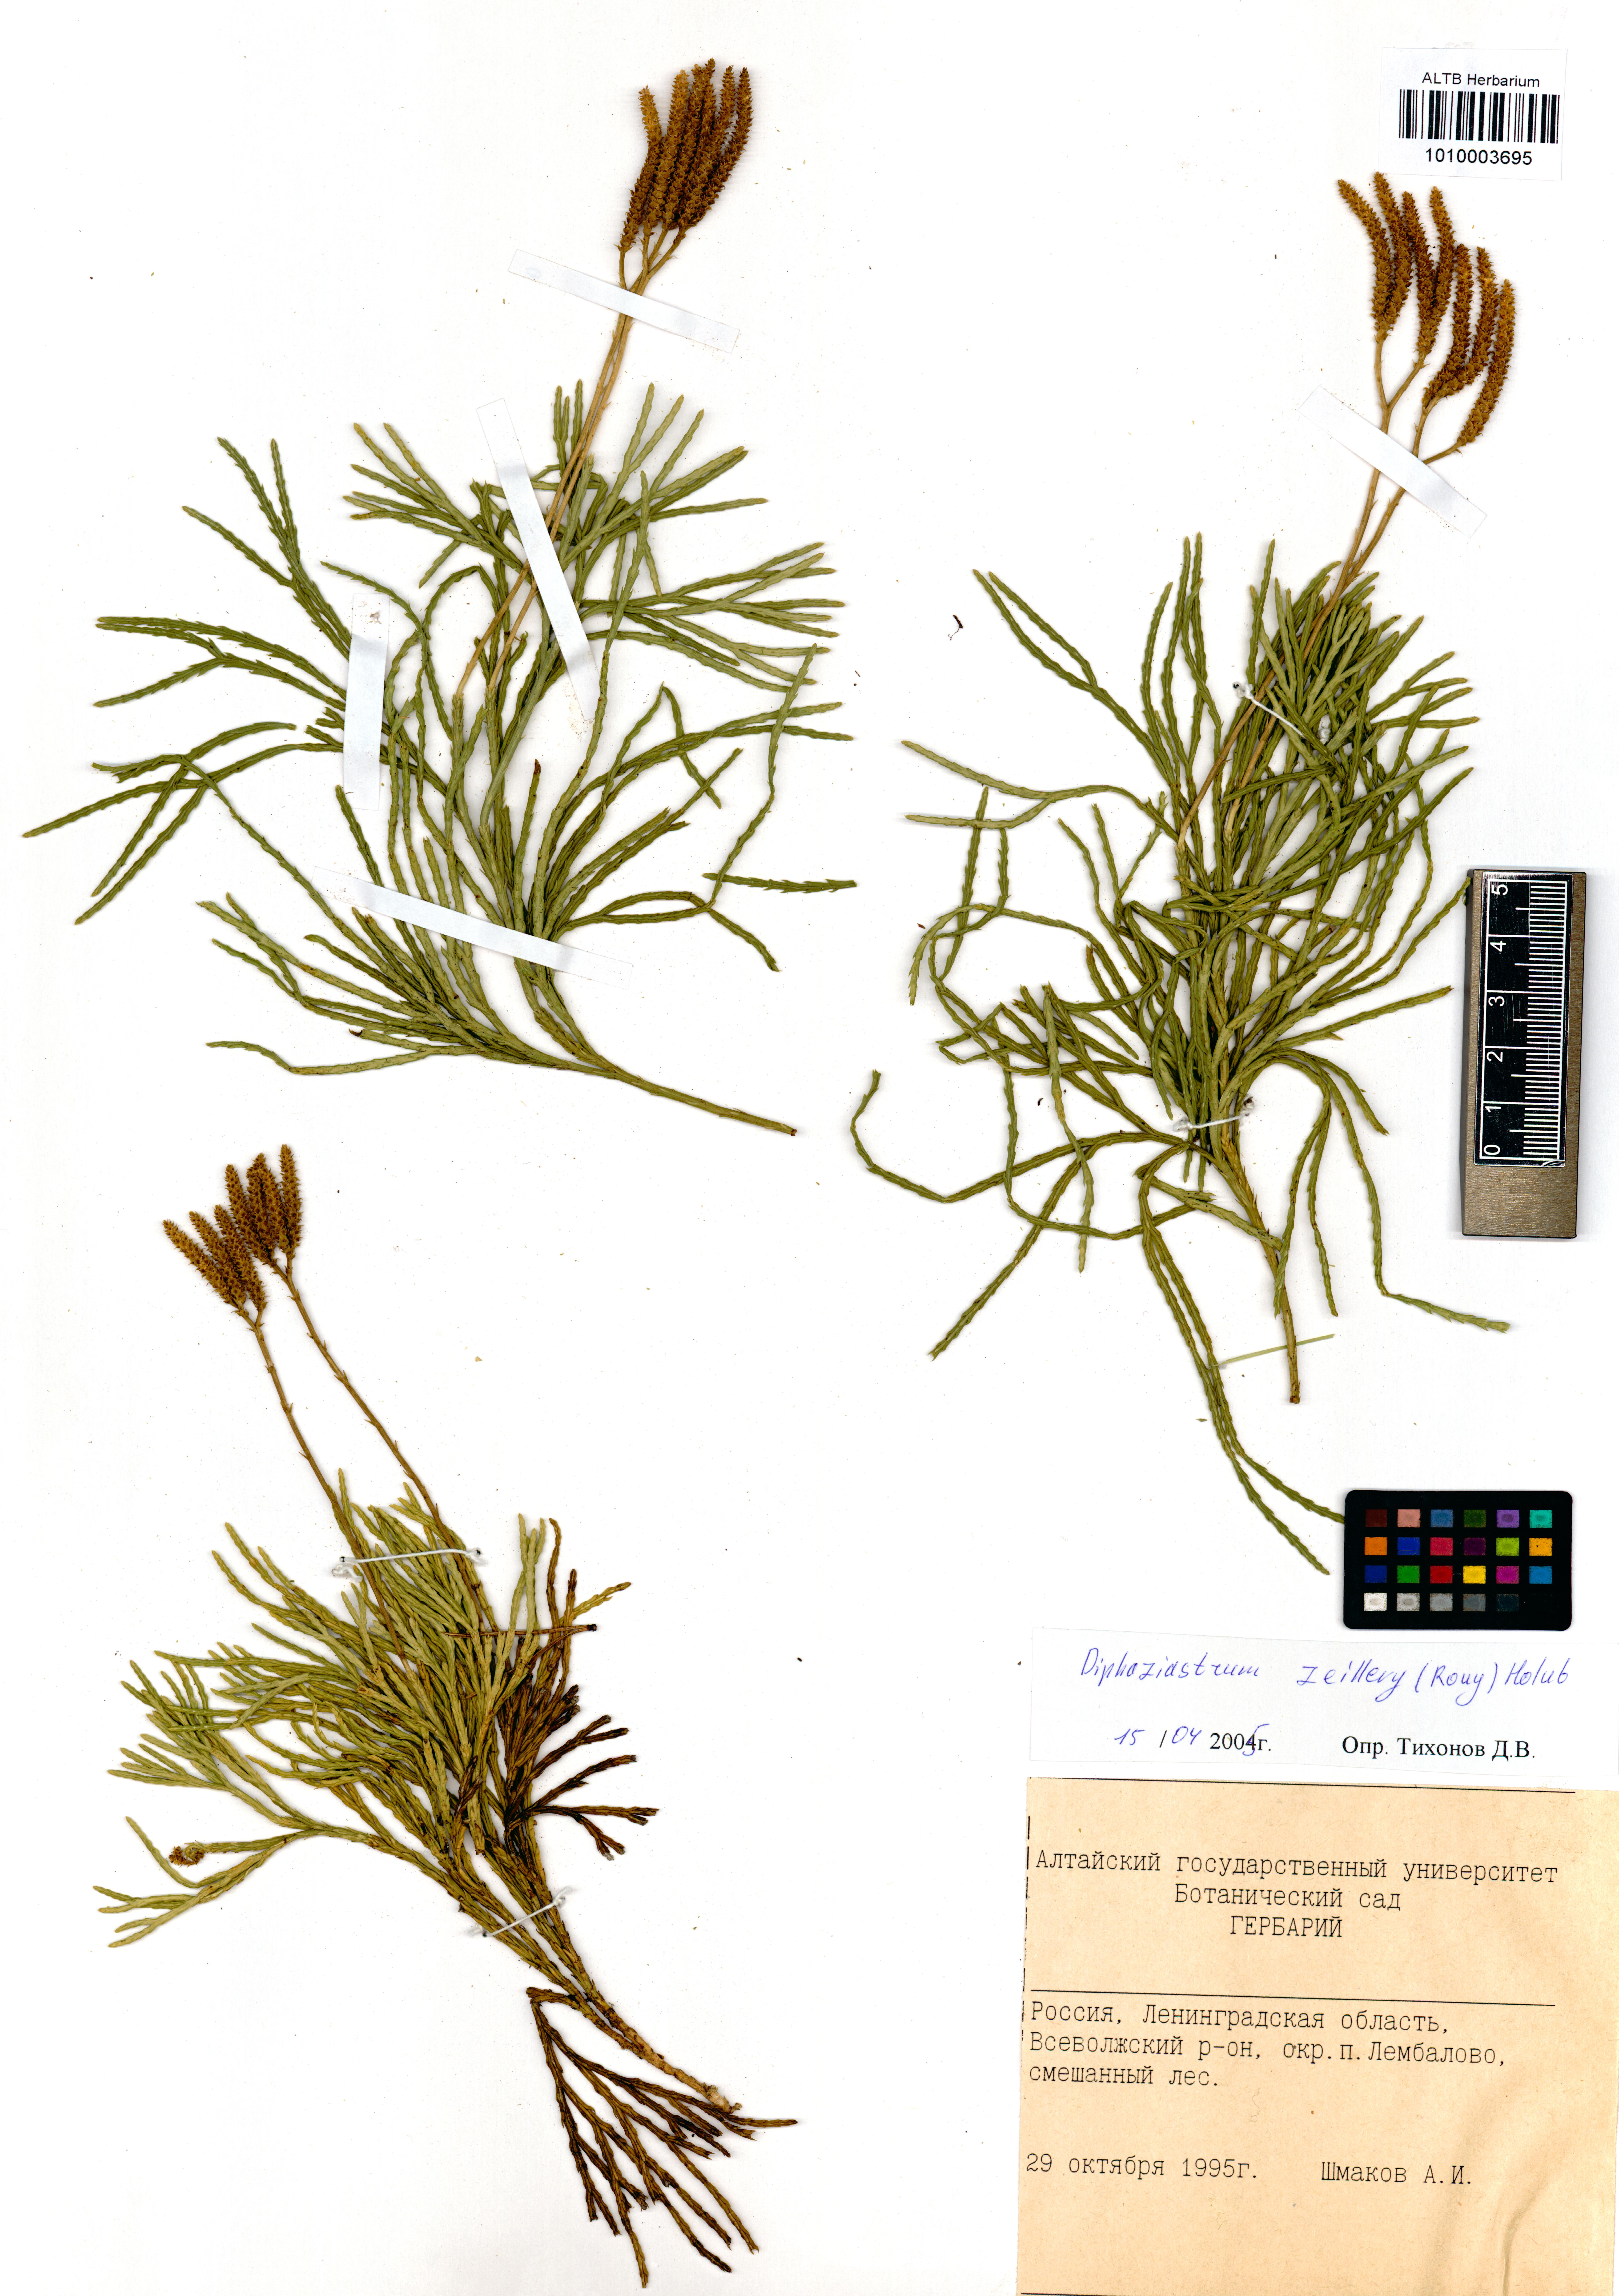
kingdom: Plantae
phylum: Tracheophyta
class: Lycopodiopsida
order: Lycopodiales
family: Lycopodiaceae
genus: Diphasiastrum
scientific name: Diphasiastrum zeilleri
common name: Zeiller's clubmoss
